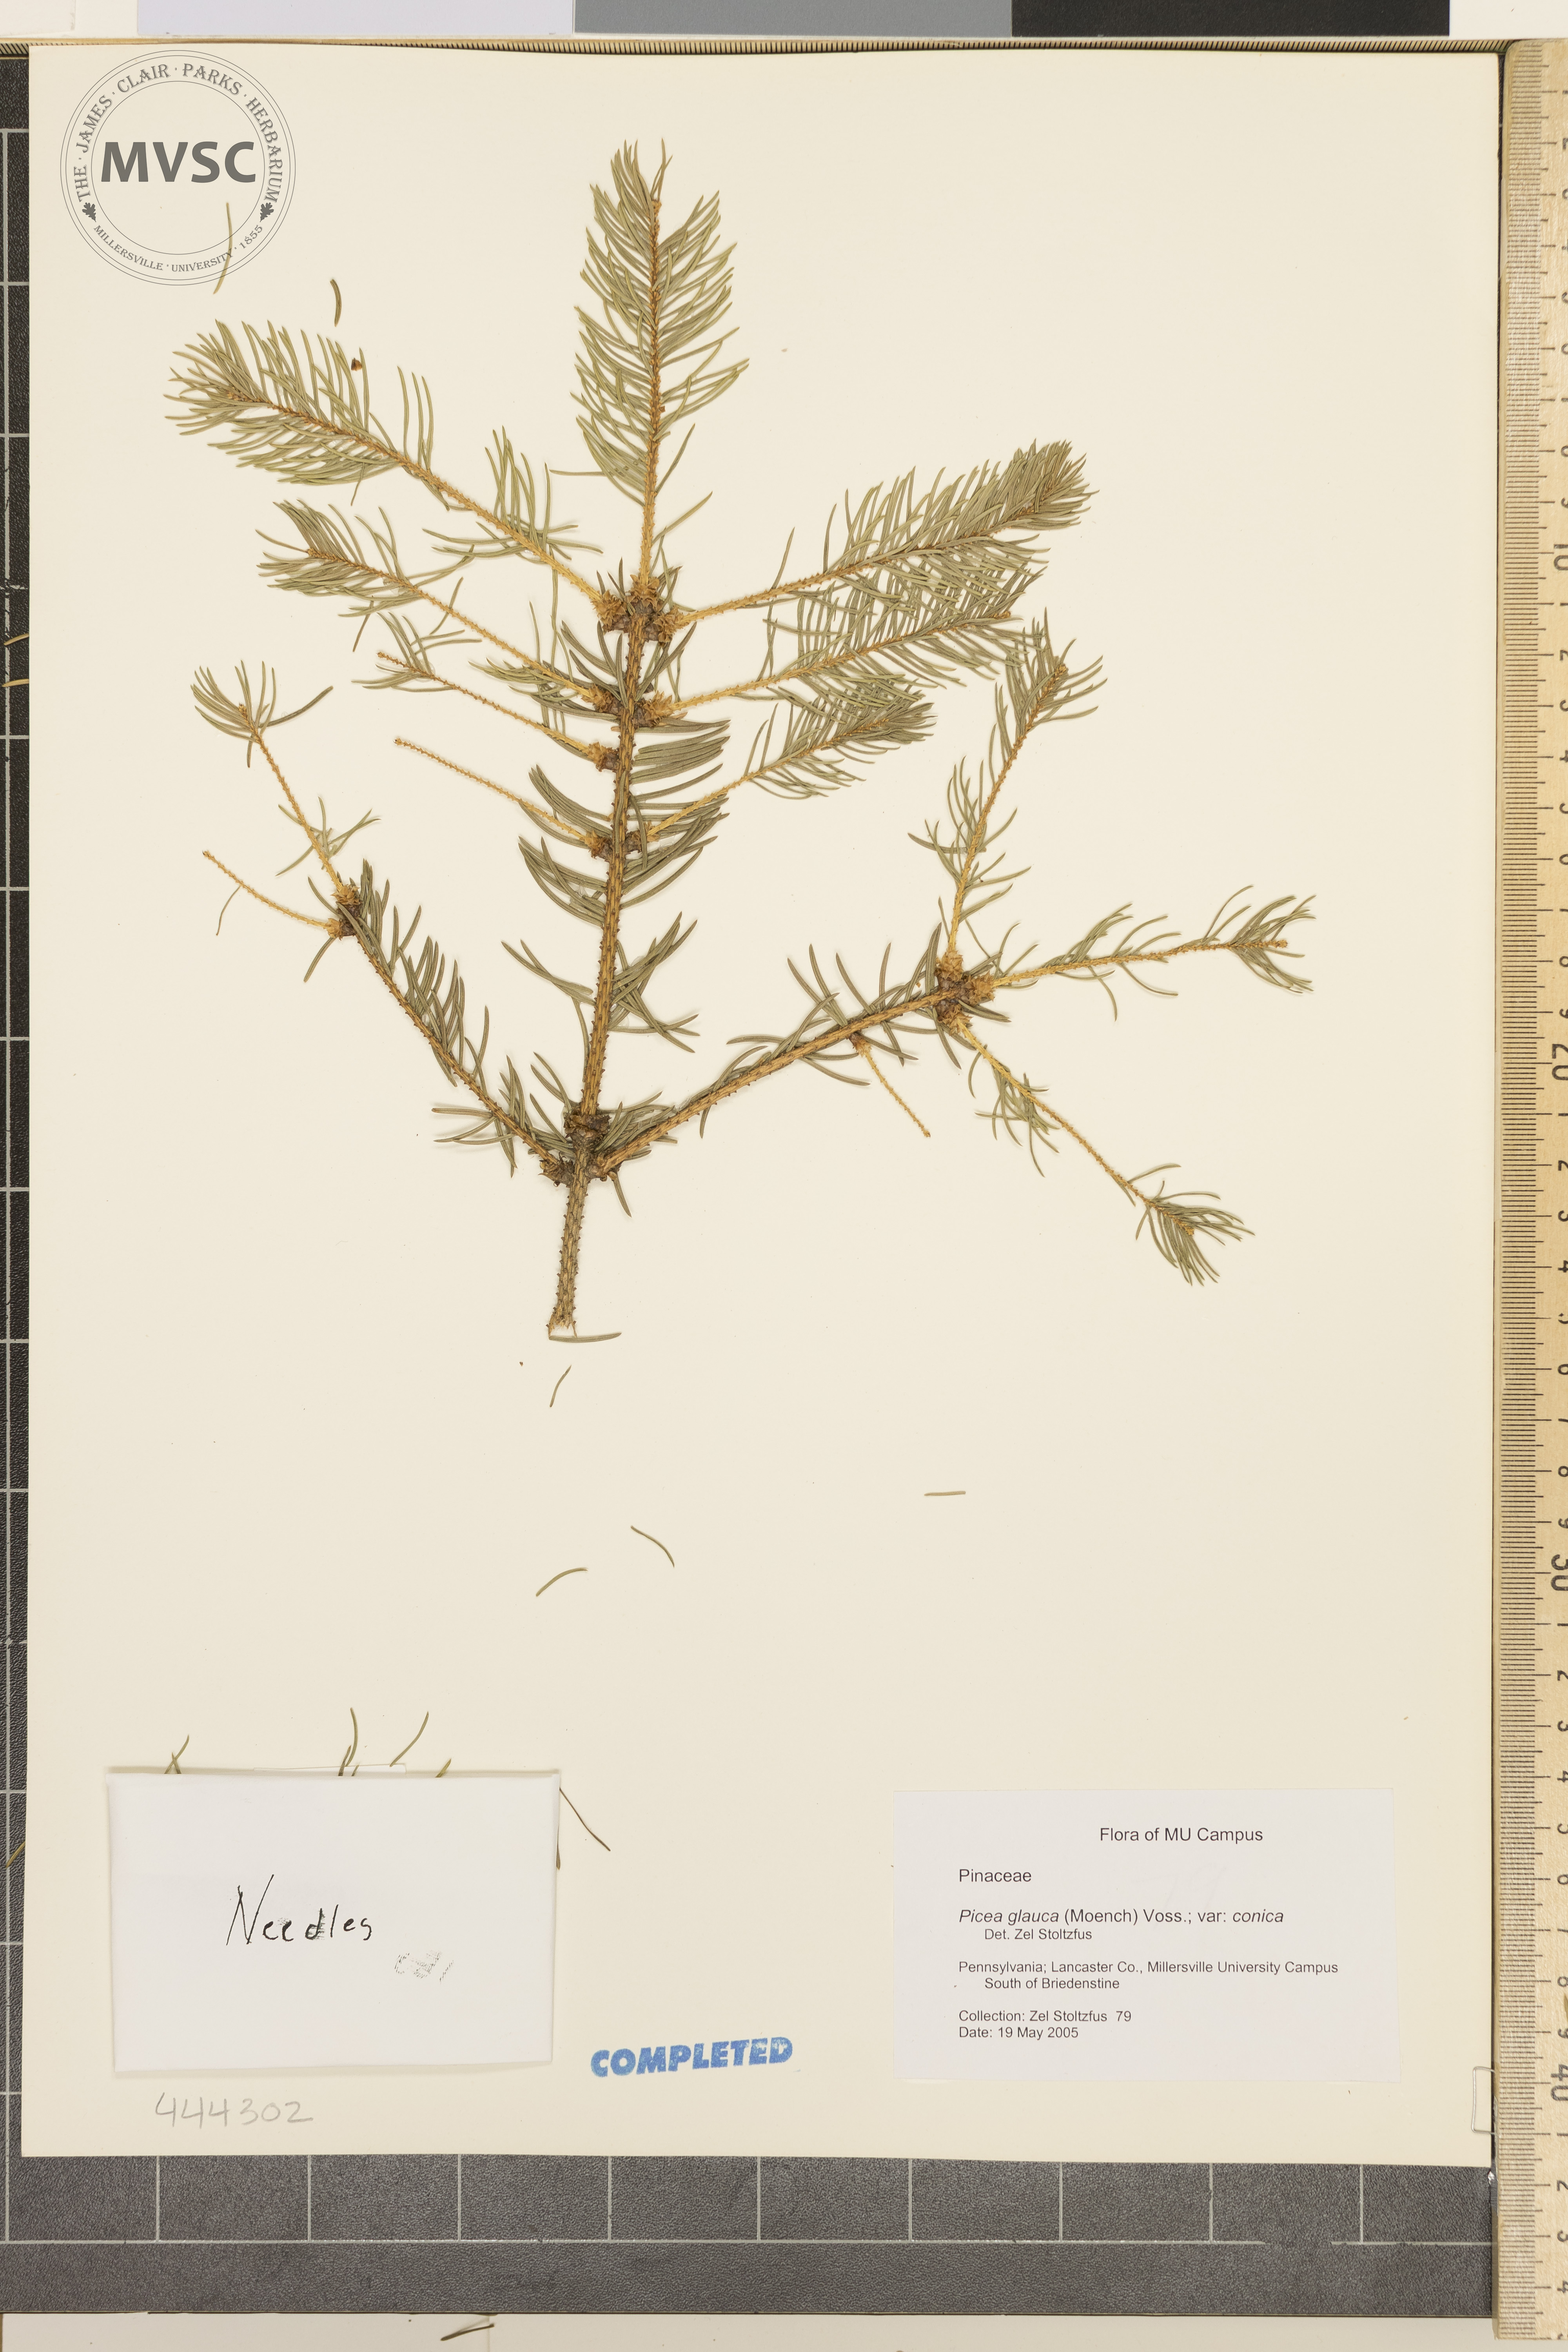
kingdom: Plantae
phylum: Tracheophyta
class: Pinopsida
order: Pinales
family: Pinaceae
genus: Picea
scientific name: Picea glauca
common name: White spruce
